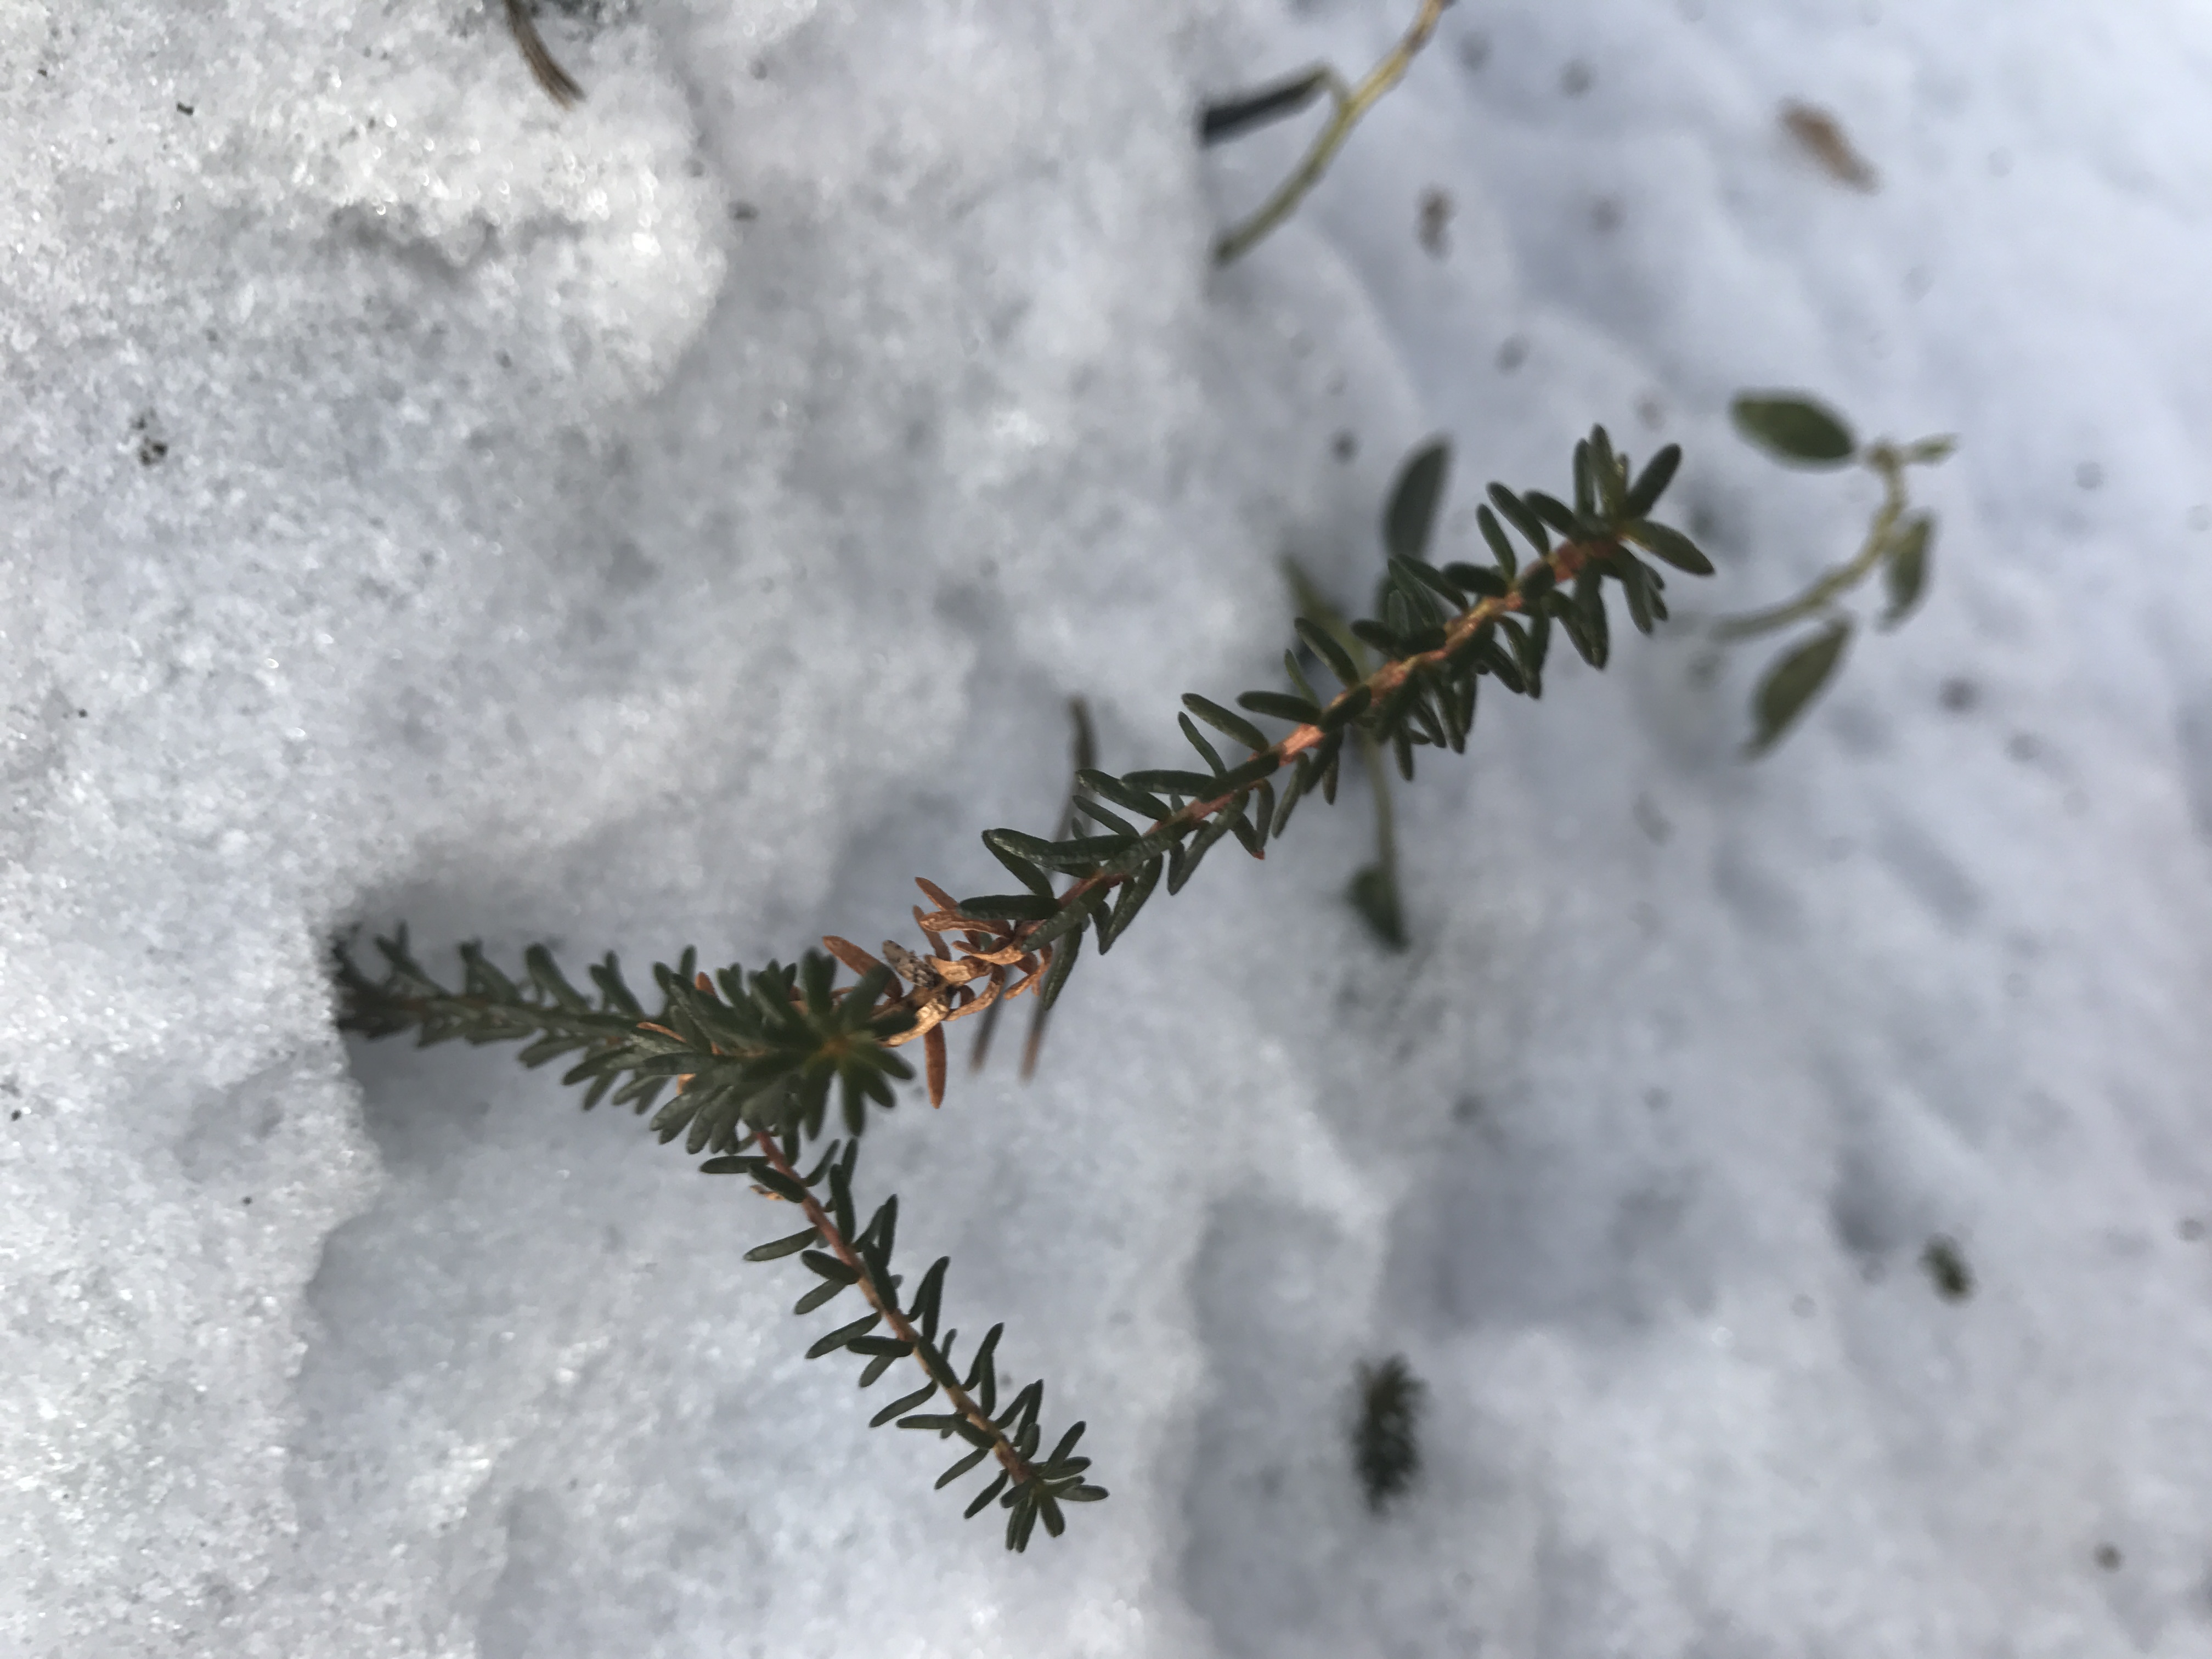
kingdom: Plantae
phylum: Tracheophyta
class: Magnoliopsida
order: Ericales
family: Ericaceae
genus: Empetrum
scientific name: Empetrum nigrum
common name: Black crowberry
